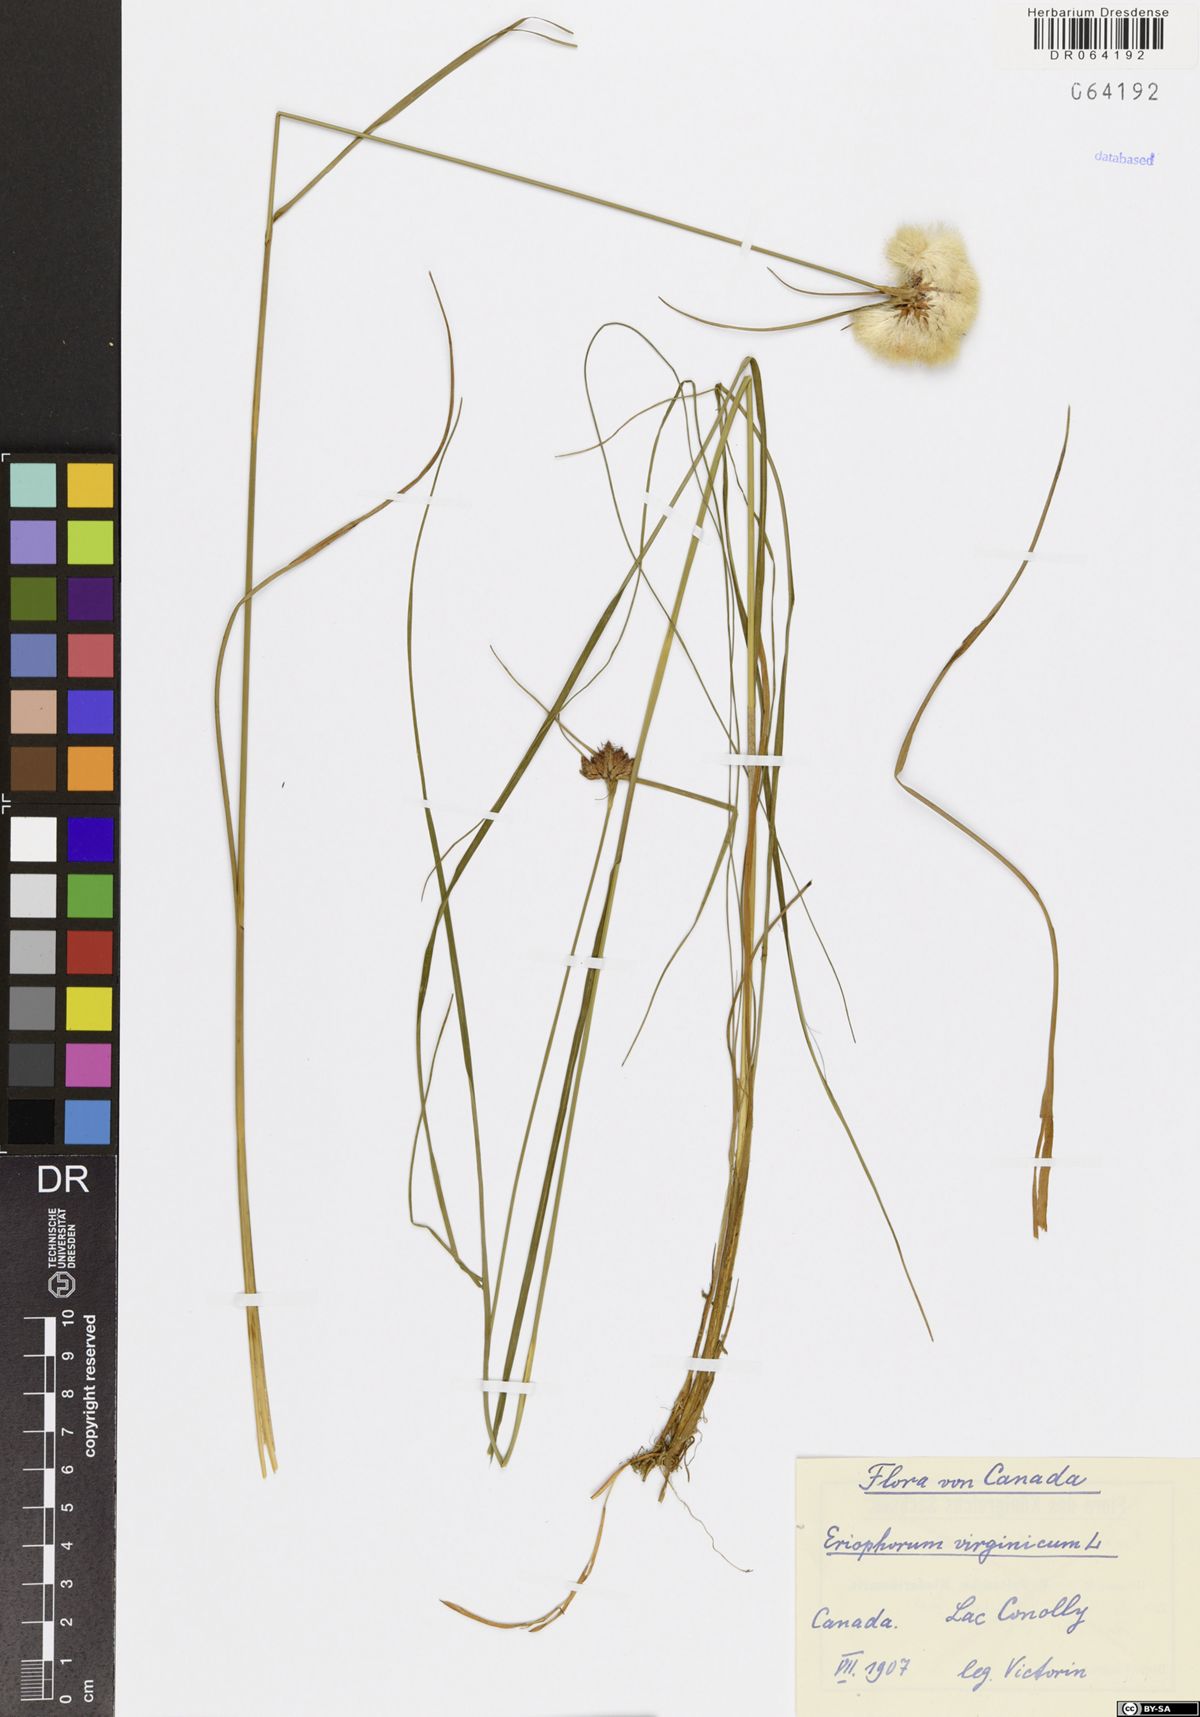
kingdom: Plantae
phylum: Tracheophyta
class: Liliopsida
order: Poales
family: Cyperaceae
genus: Eriophorum
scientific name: Eriophorum virginicum
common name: Tawny cottongrass
